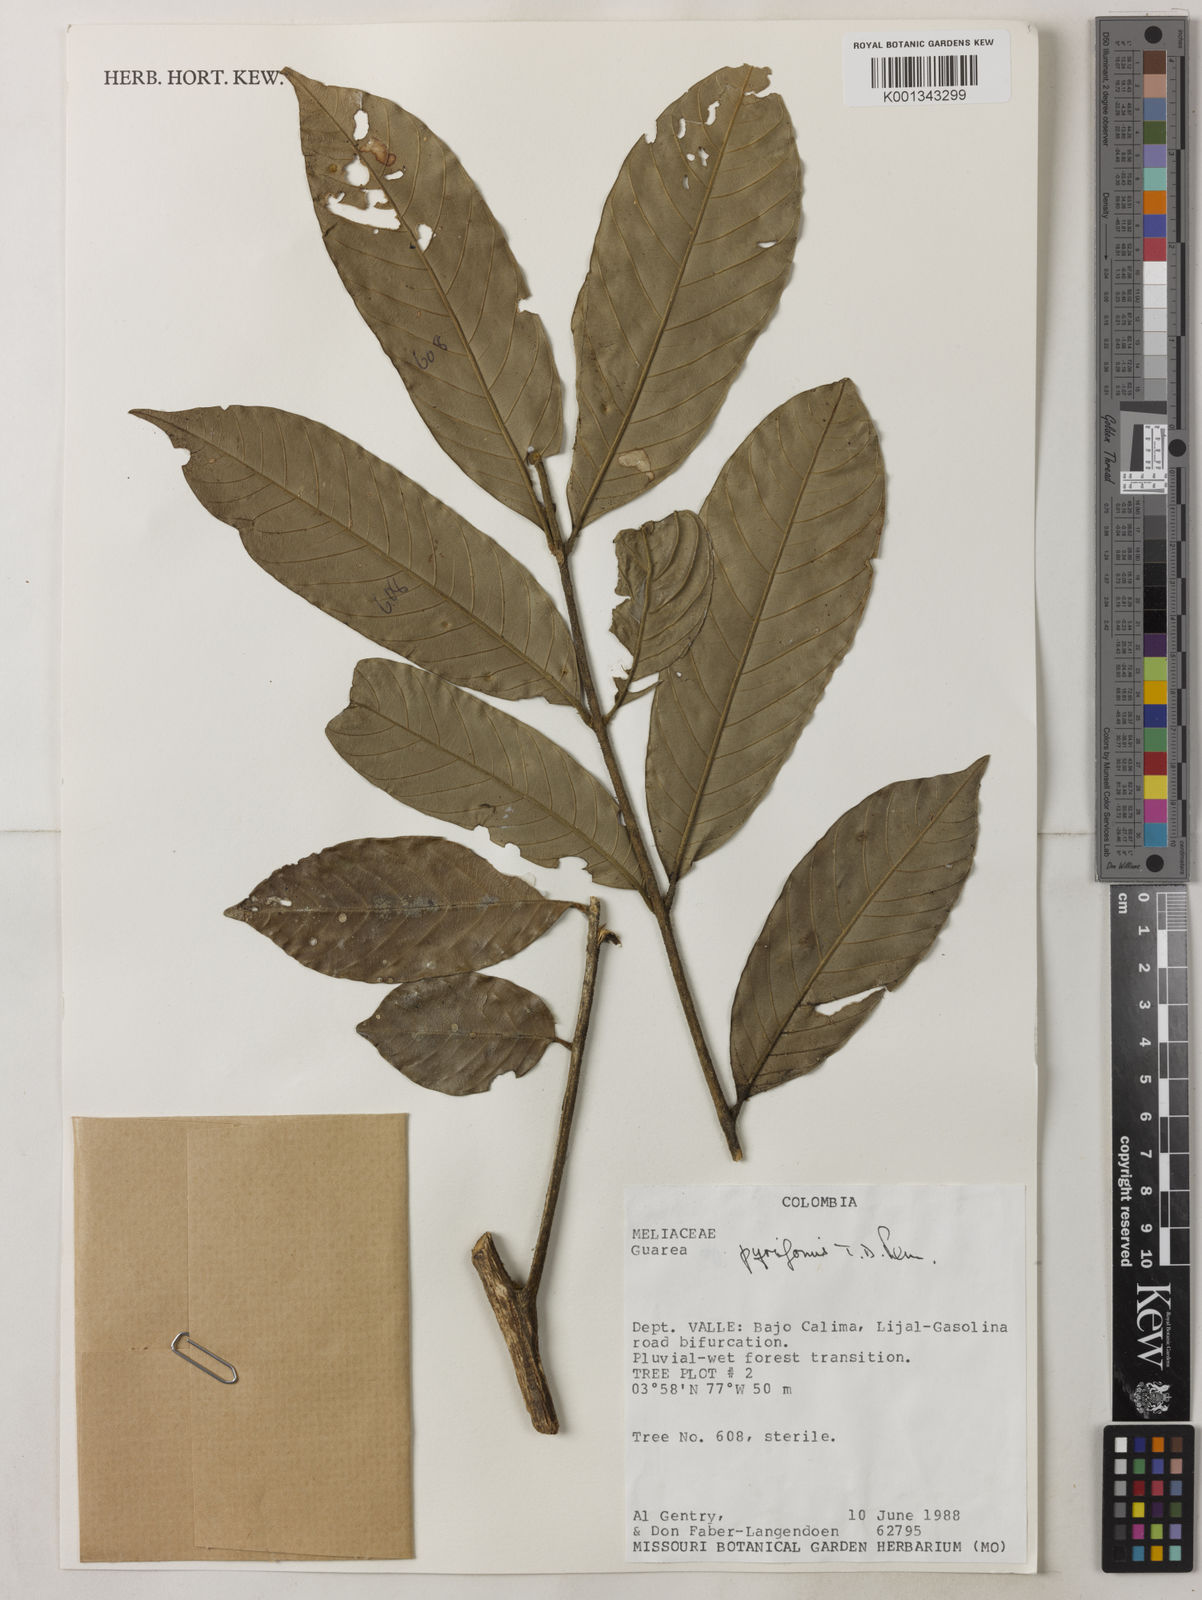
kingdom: Plantae
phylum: Tracheophyta
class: Magnoliopsida
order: Sapindales
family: Meliaceae
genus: Guarea
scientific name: Guarea pyriformis
